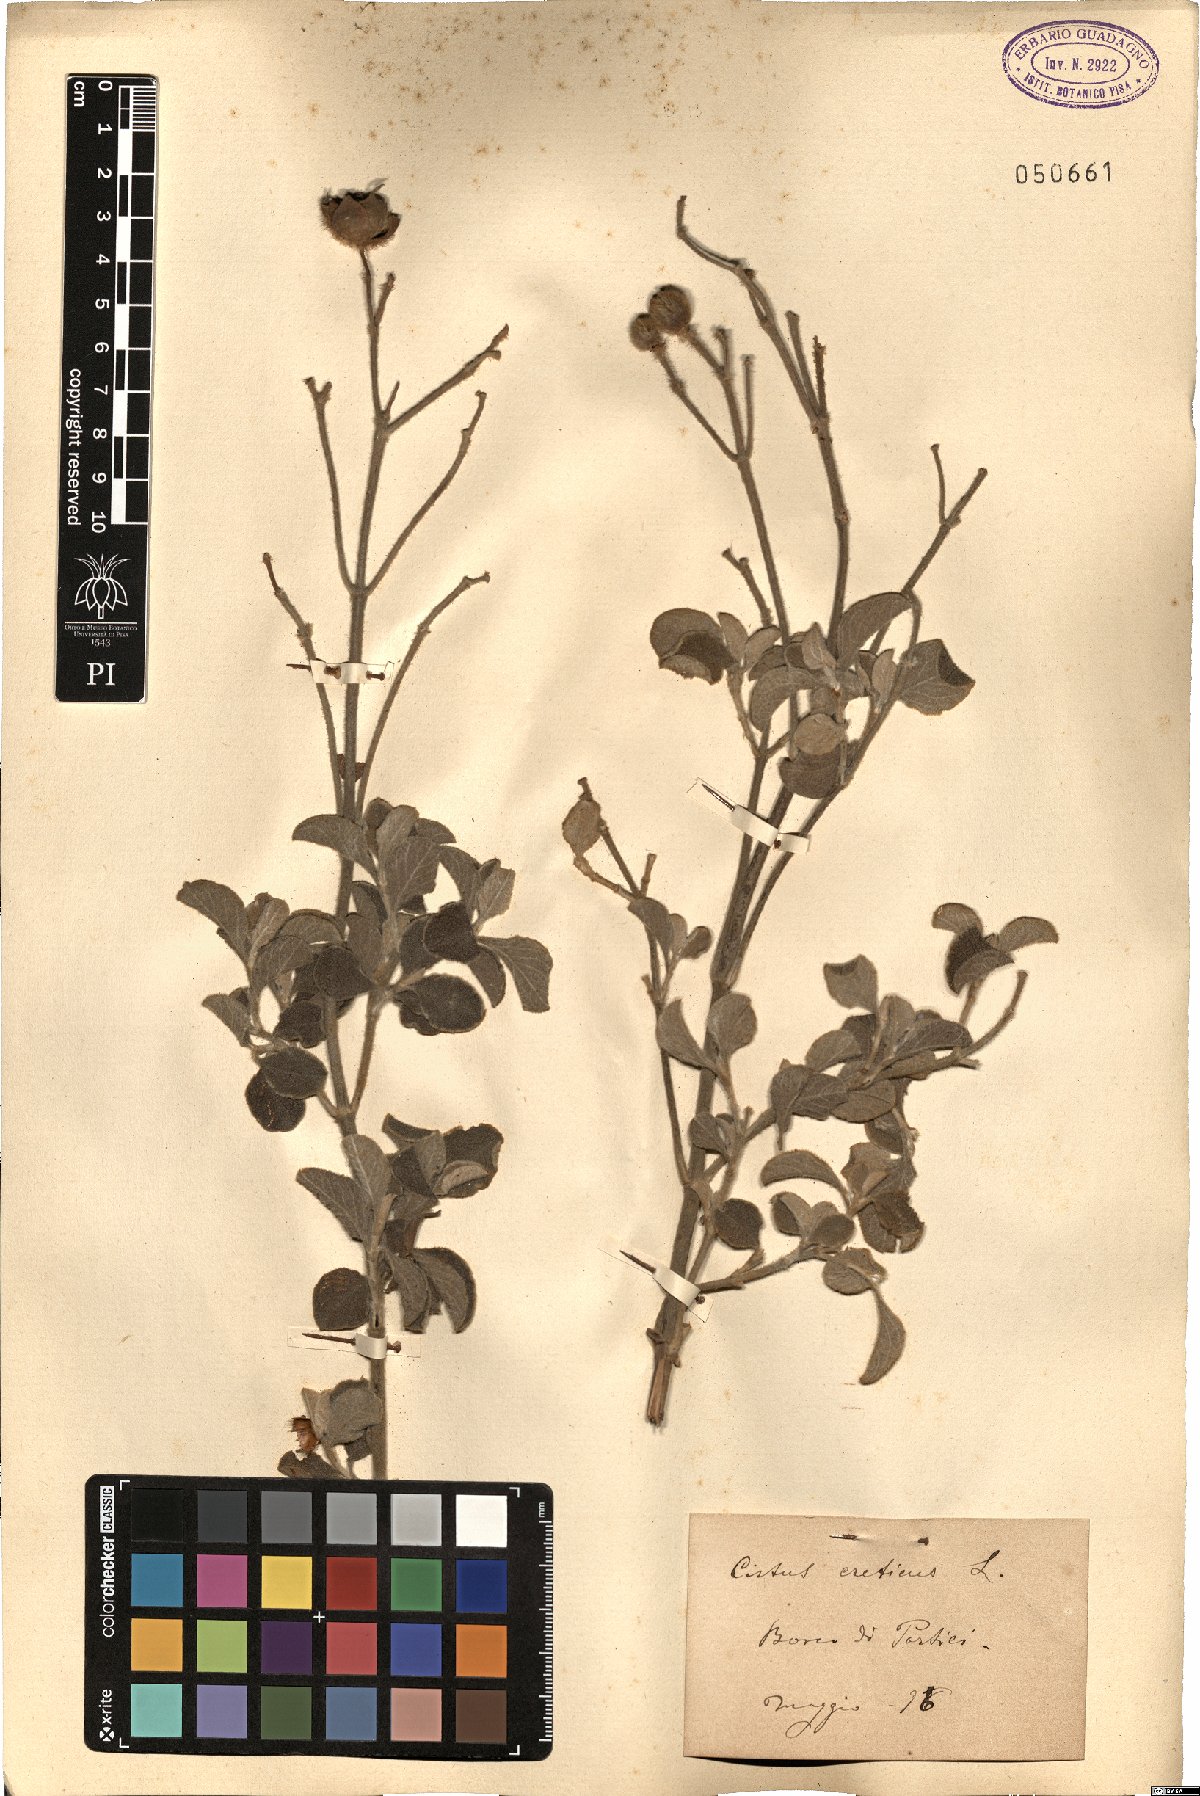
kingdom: Plantae
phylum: Tracheophyta
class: Magnoliopsida
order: Malvales
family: Cistaceae
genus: Cistus
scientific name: Cistus creticus
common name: Cretan rockrose
